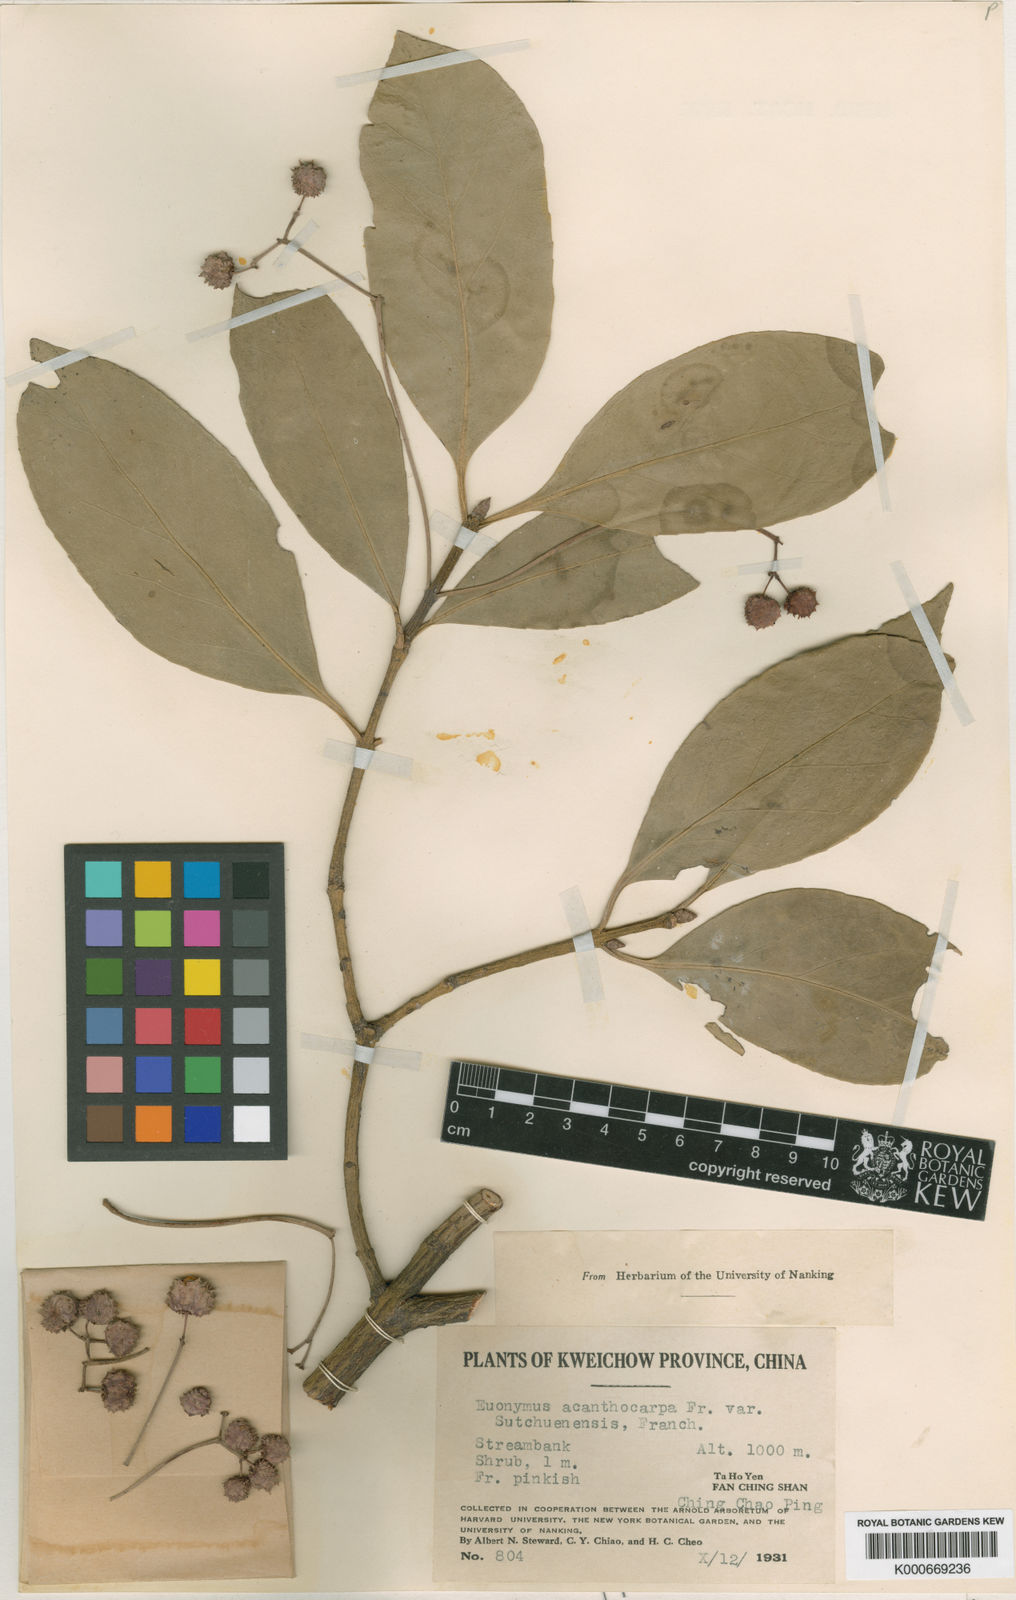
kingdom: Plantae
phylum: Tracheophyta
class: Magnoliopsida
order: Celastrales
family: Celastraceae
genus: Euonymus
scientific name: Euonymus acanthocarpus
